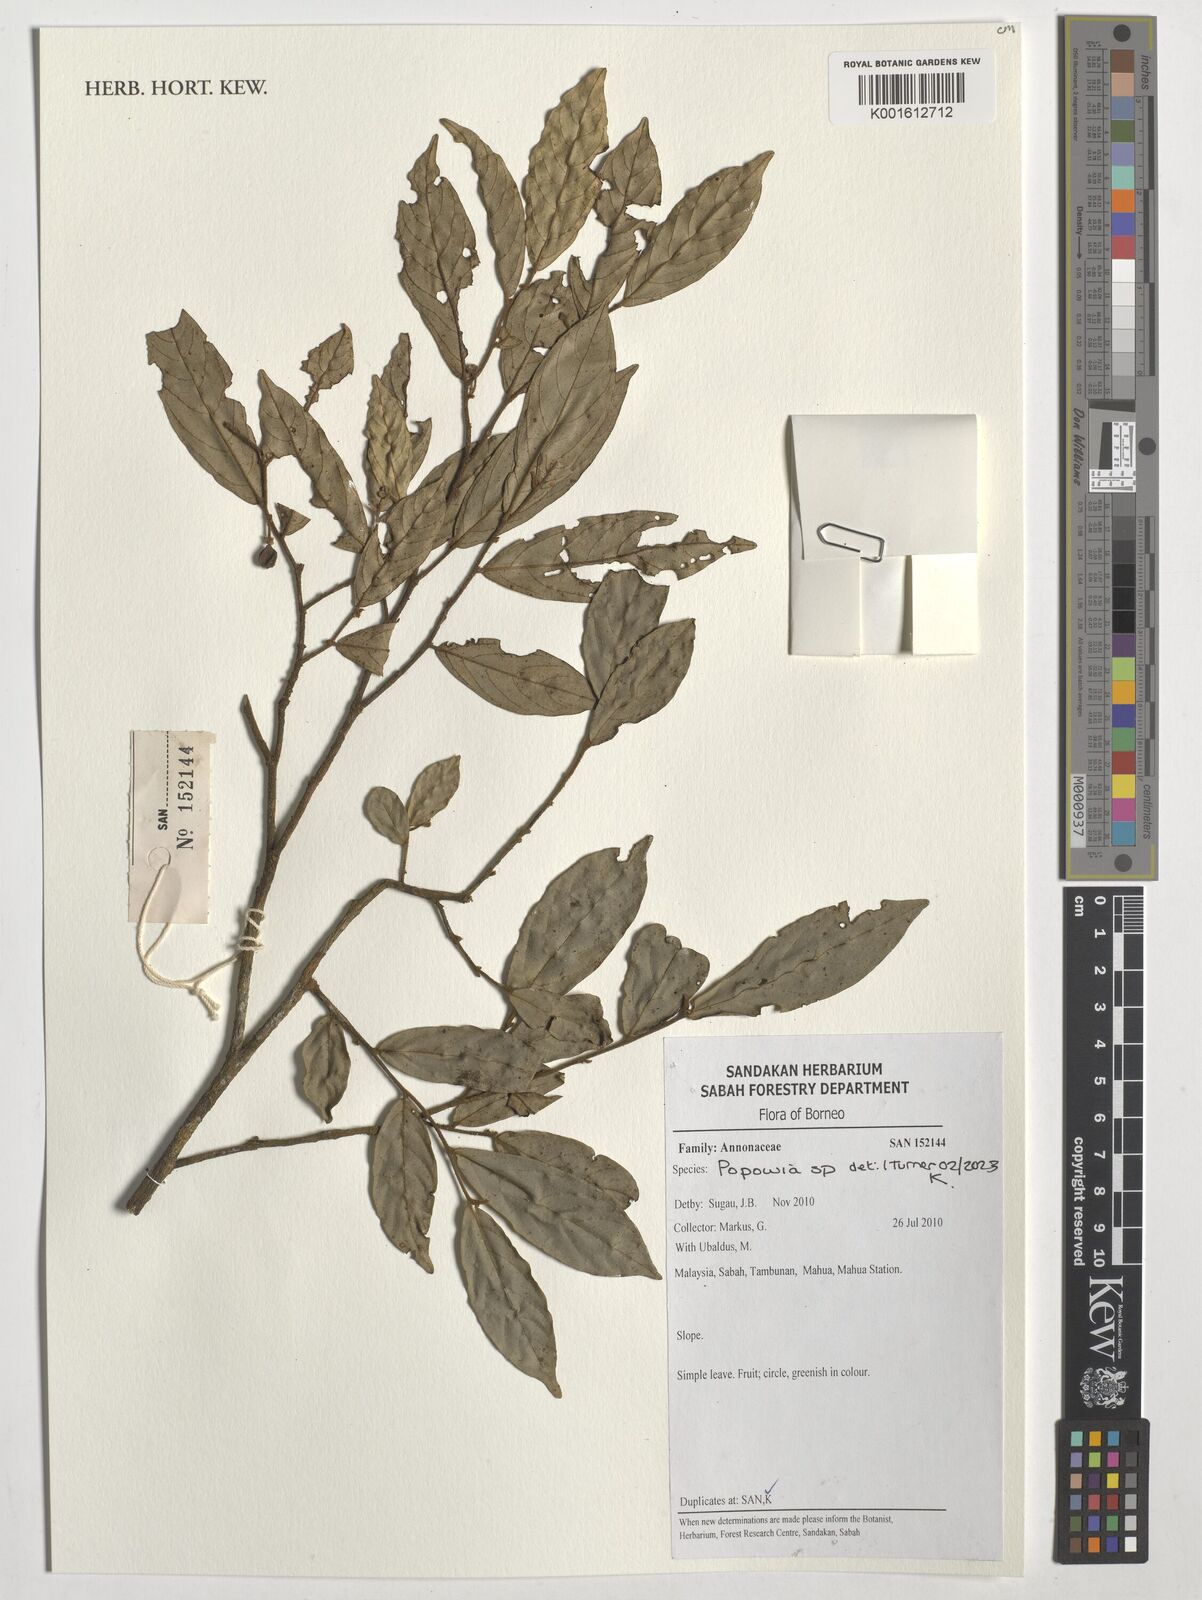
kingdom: Plantae
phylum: Tracheophyta
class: Magnoliopsida
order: Magnoliales
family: Annonaceae
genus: Popowia
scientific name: Popowia
